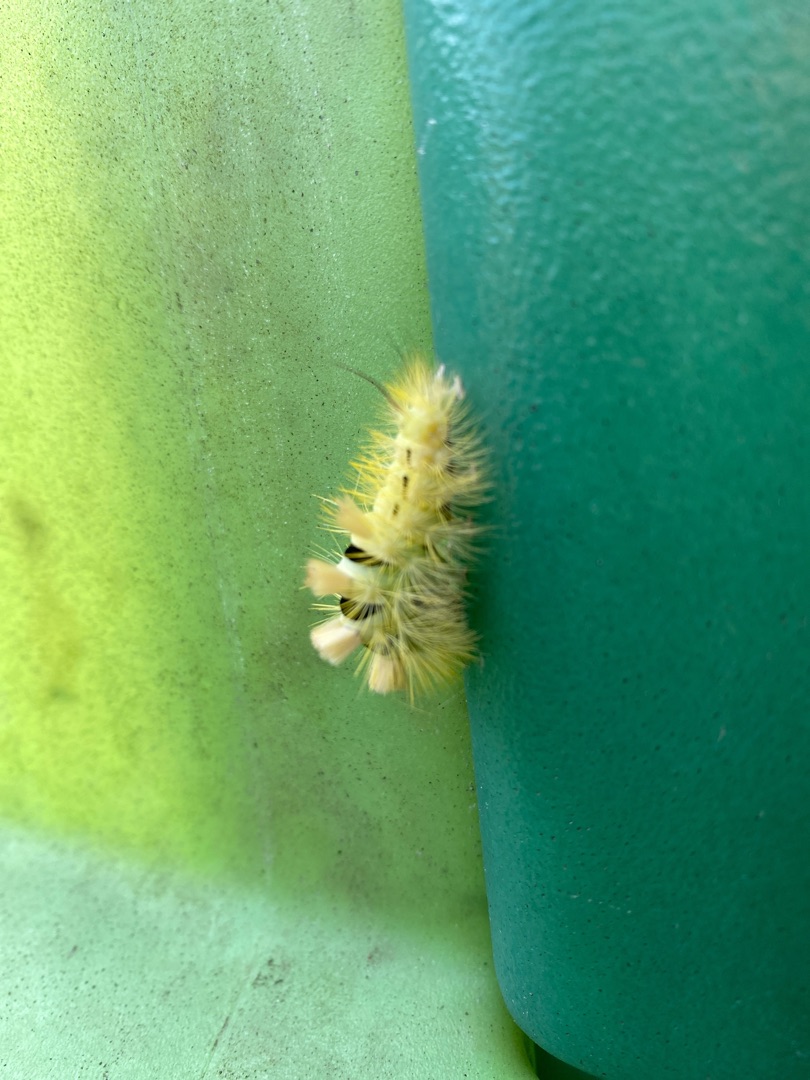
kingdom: Animalia
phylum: Arthropoda
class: Insecta
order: Lepidoptera
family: Erebidae
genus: Calliteara
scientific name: Calliteara pudibunda
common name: Bøgenonne
